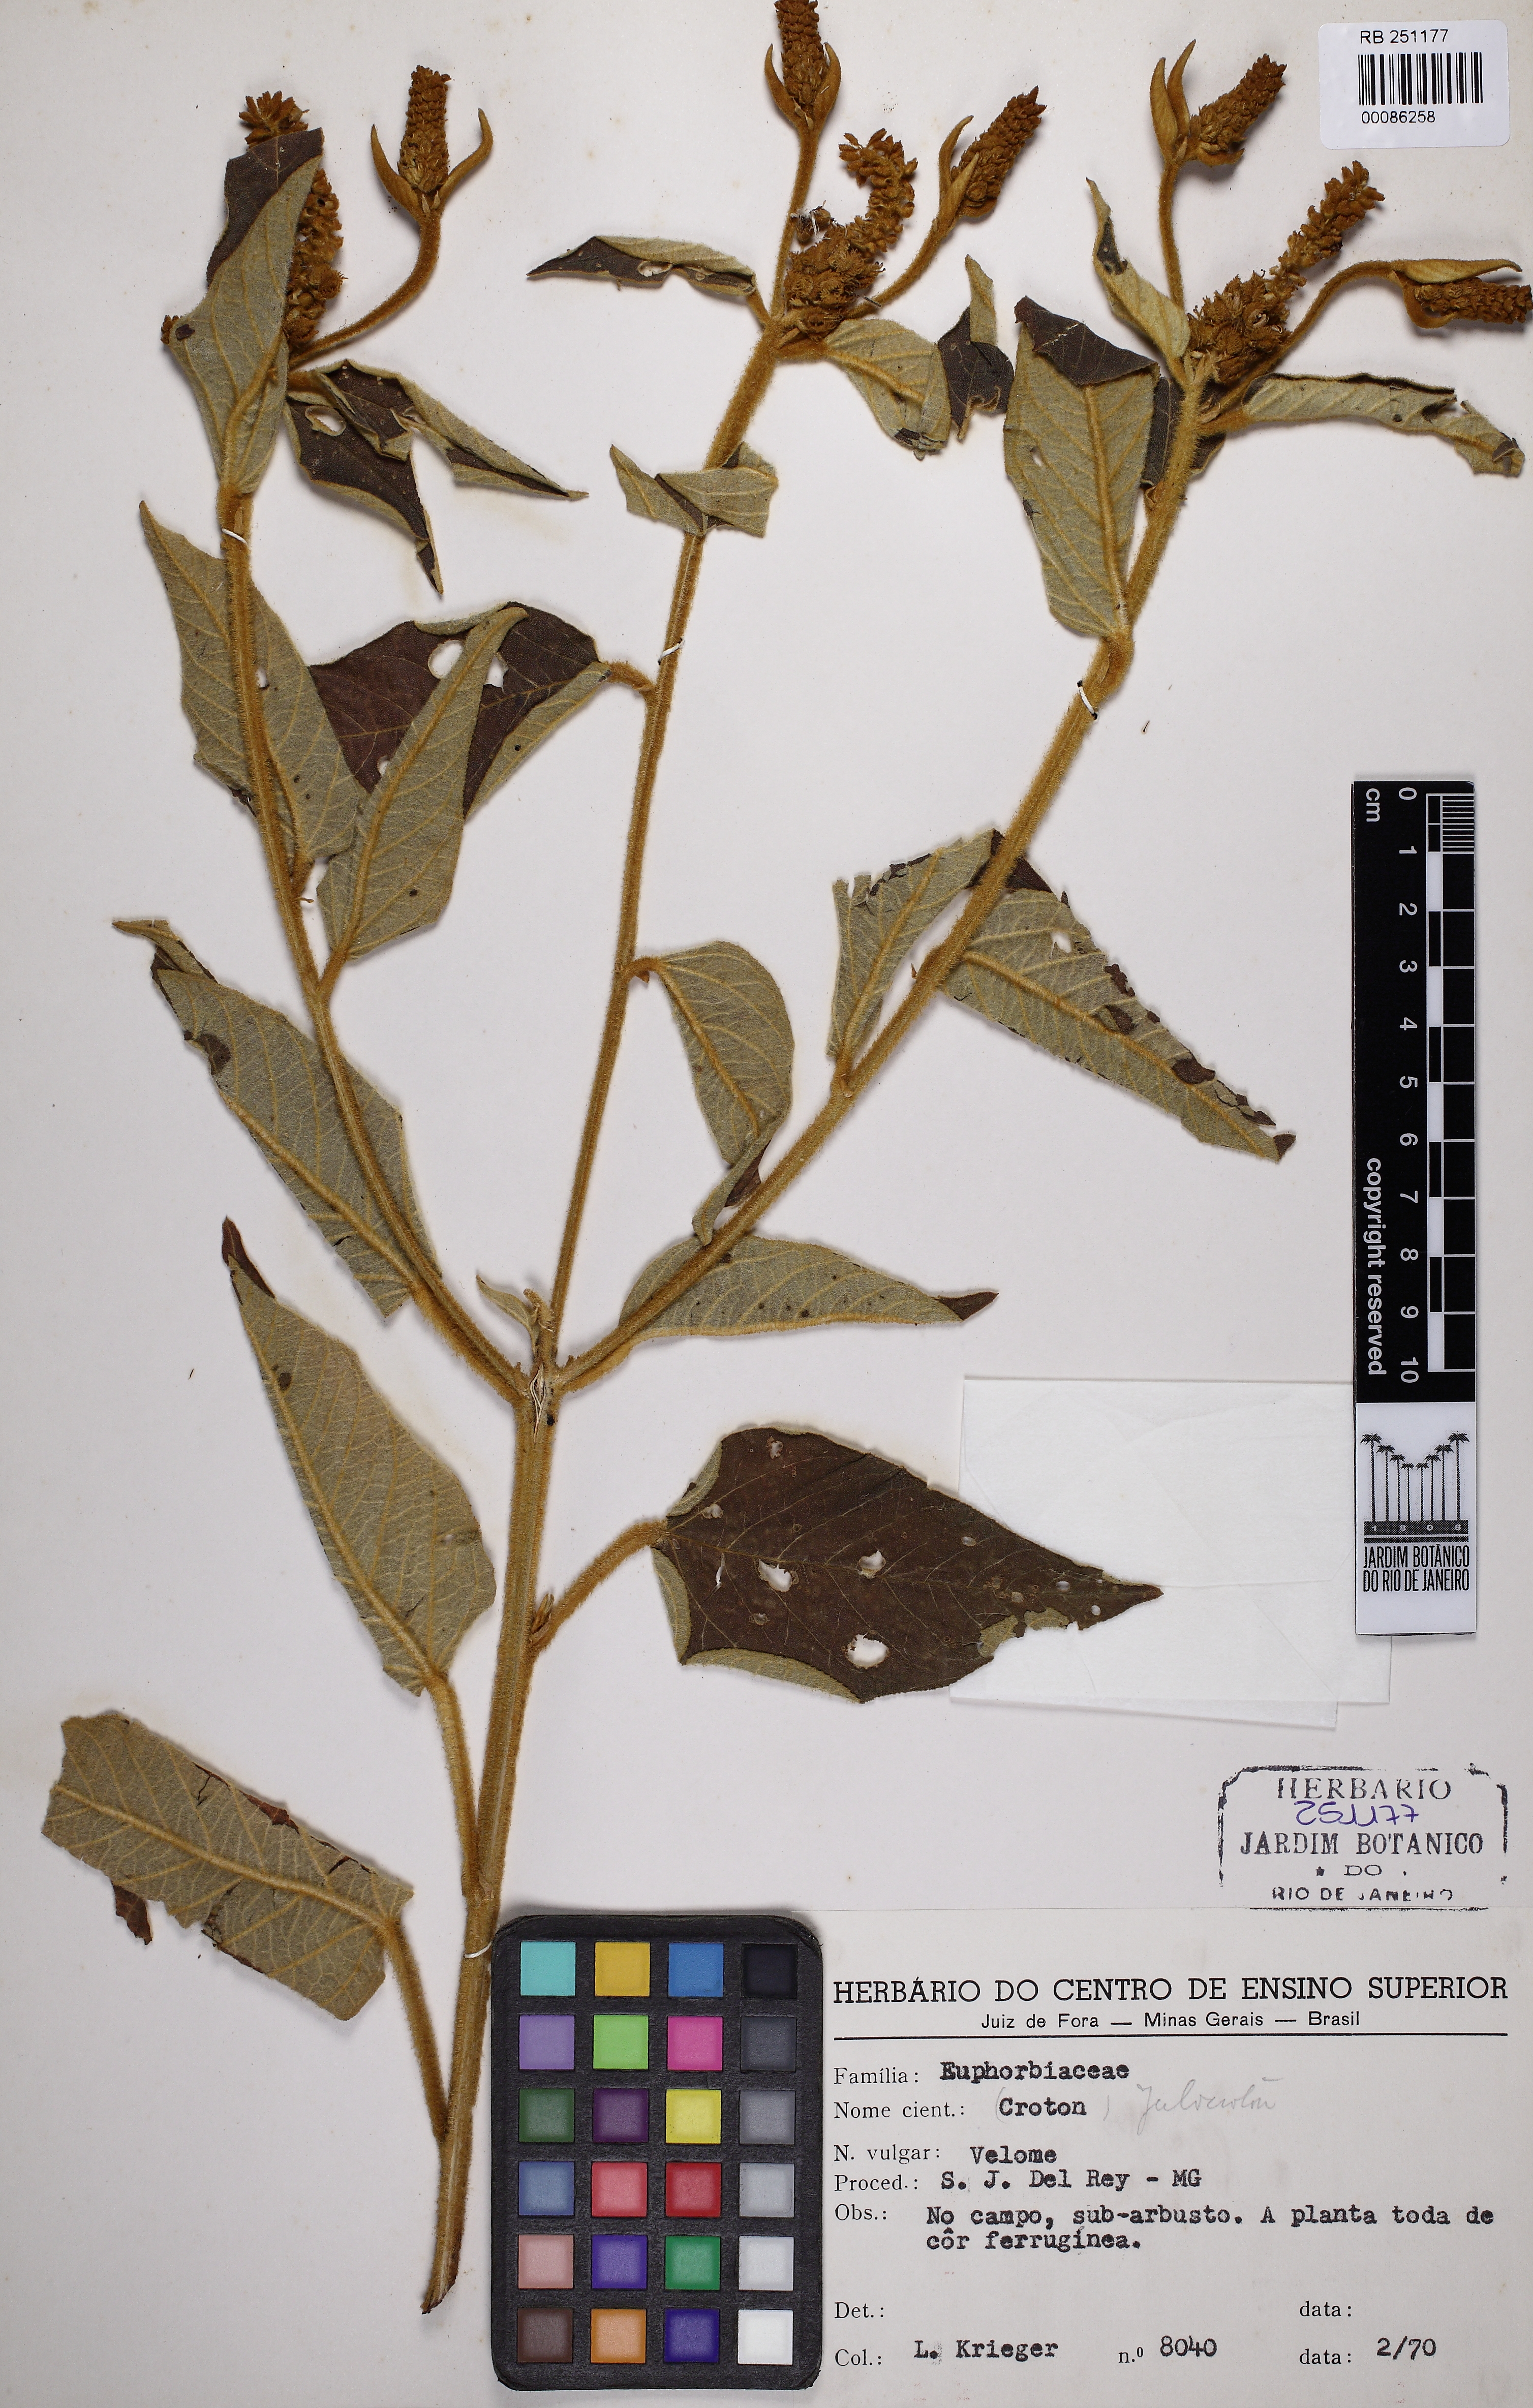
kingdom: Plantae
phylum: Tracheophyta
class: Magnoliopsida
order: Malpighiales
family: Euphorbiaceae
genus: Croton
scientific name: Croton triqueter
